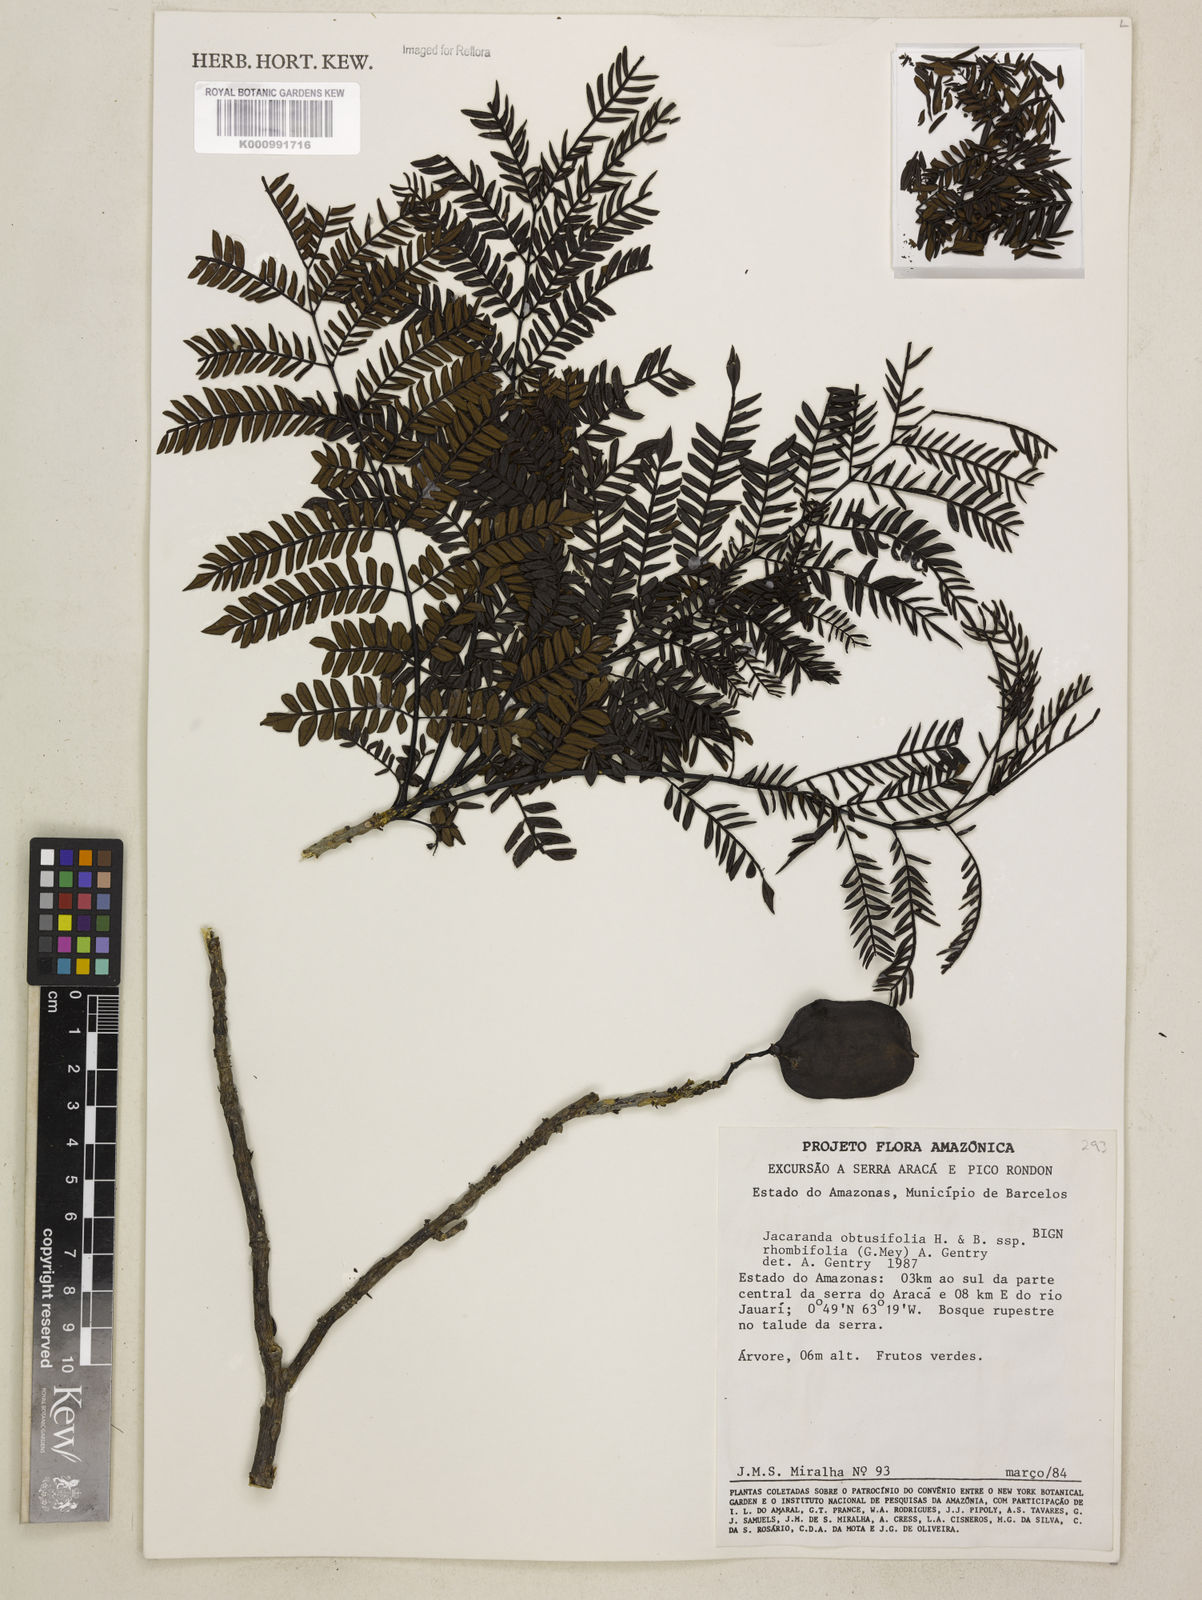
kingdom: Plantae
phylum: Tracheophyta
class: Magnoliopsida
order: Lamiales
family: Bignoniaceae
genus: Jacaranda
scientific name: Jacaranda obtusifolia
